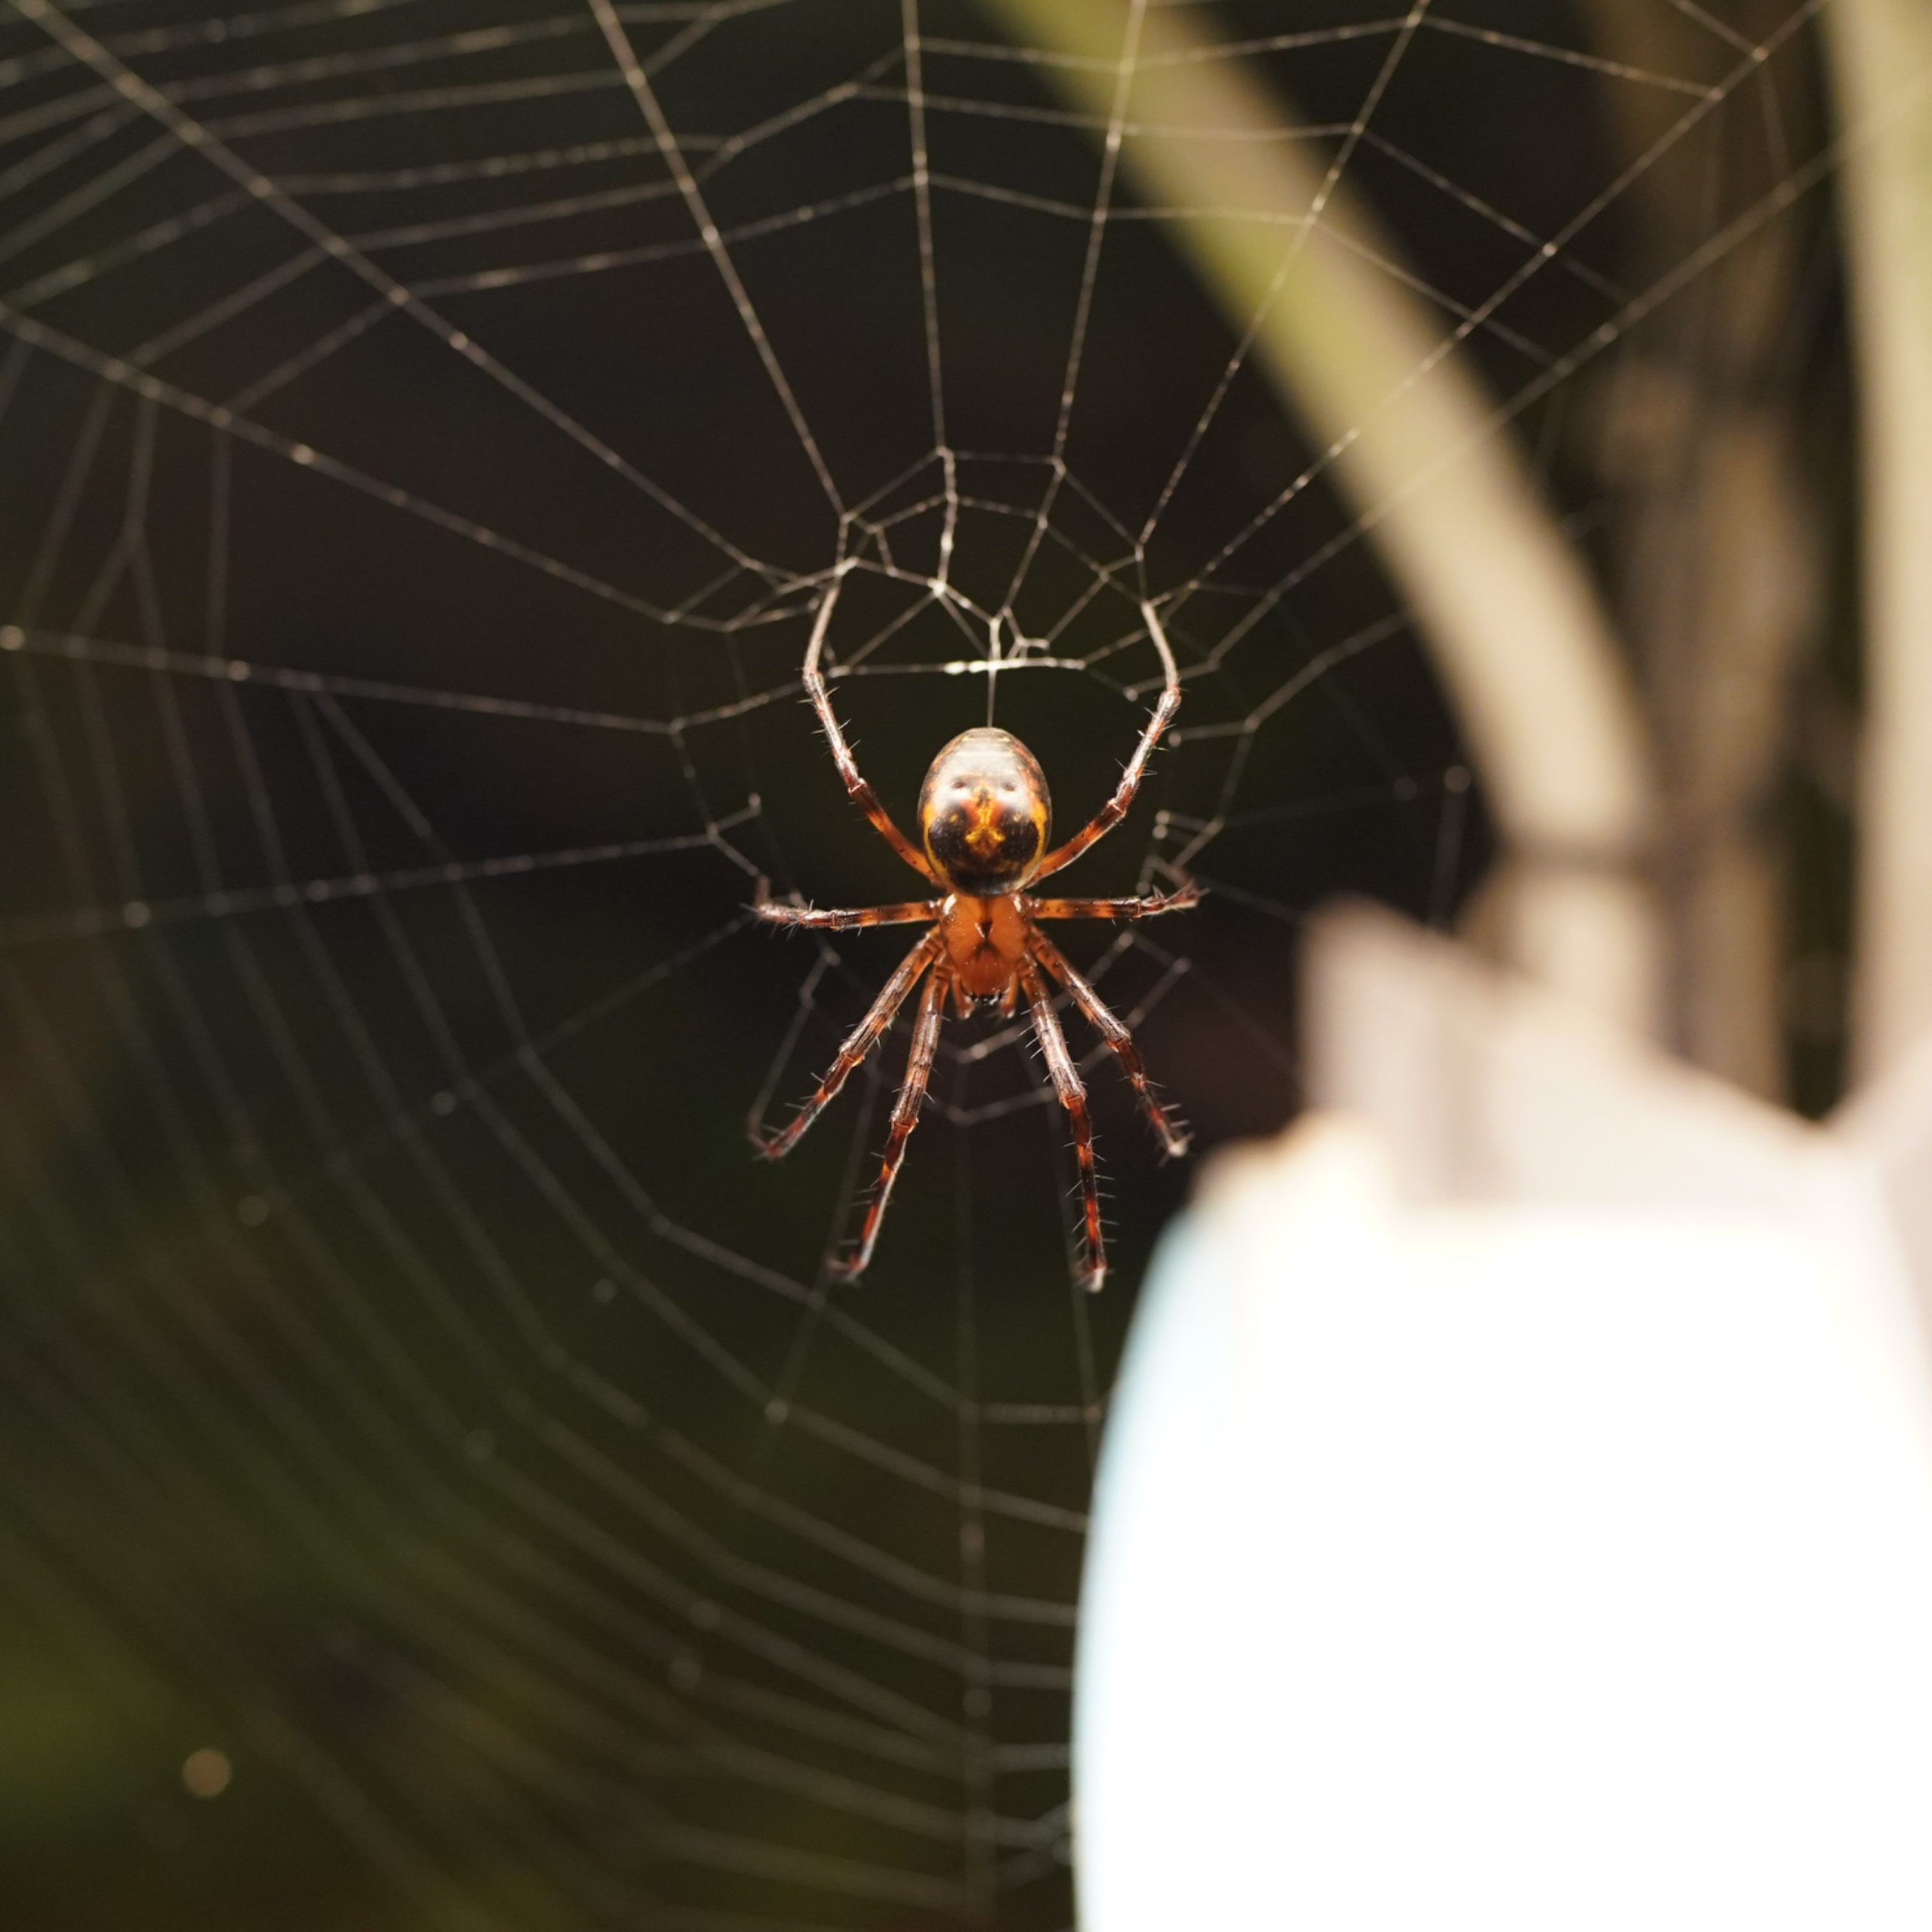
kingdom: Animalia
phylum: Arthropoda
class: Arachnida
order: Araneae
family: Tetragnathidae
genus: Meta
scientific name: Meta menardi
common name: Grotteedderkop
